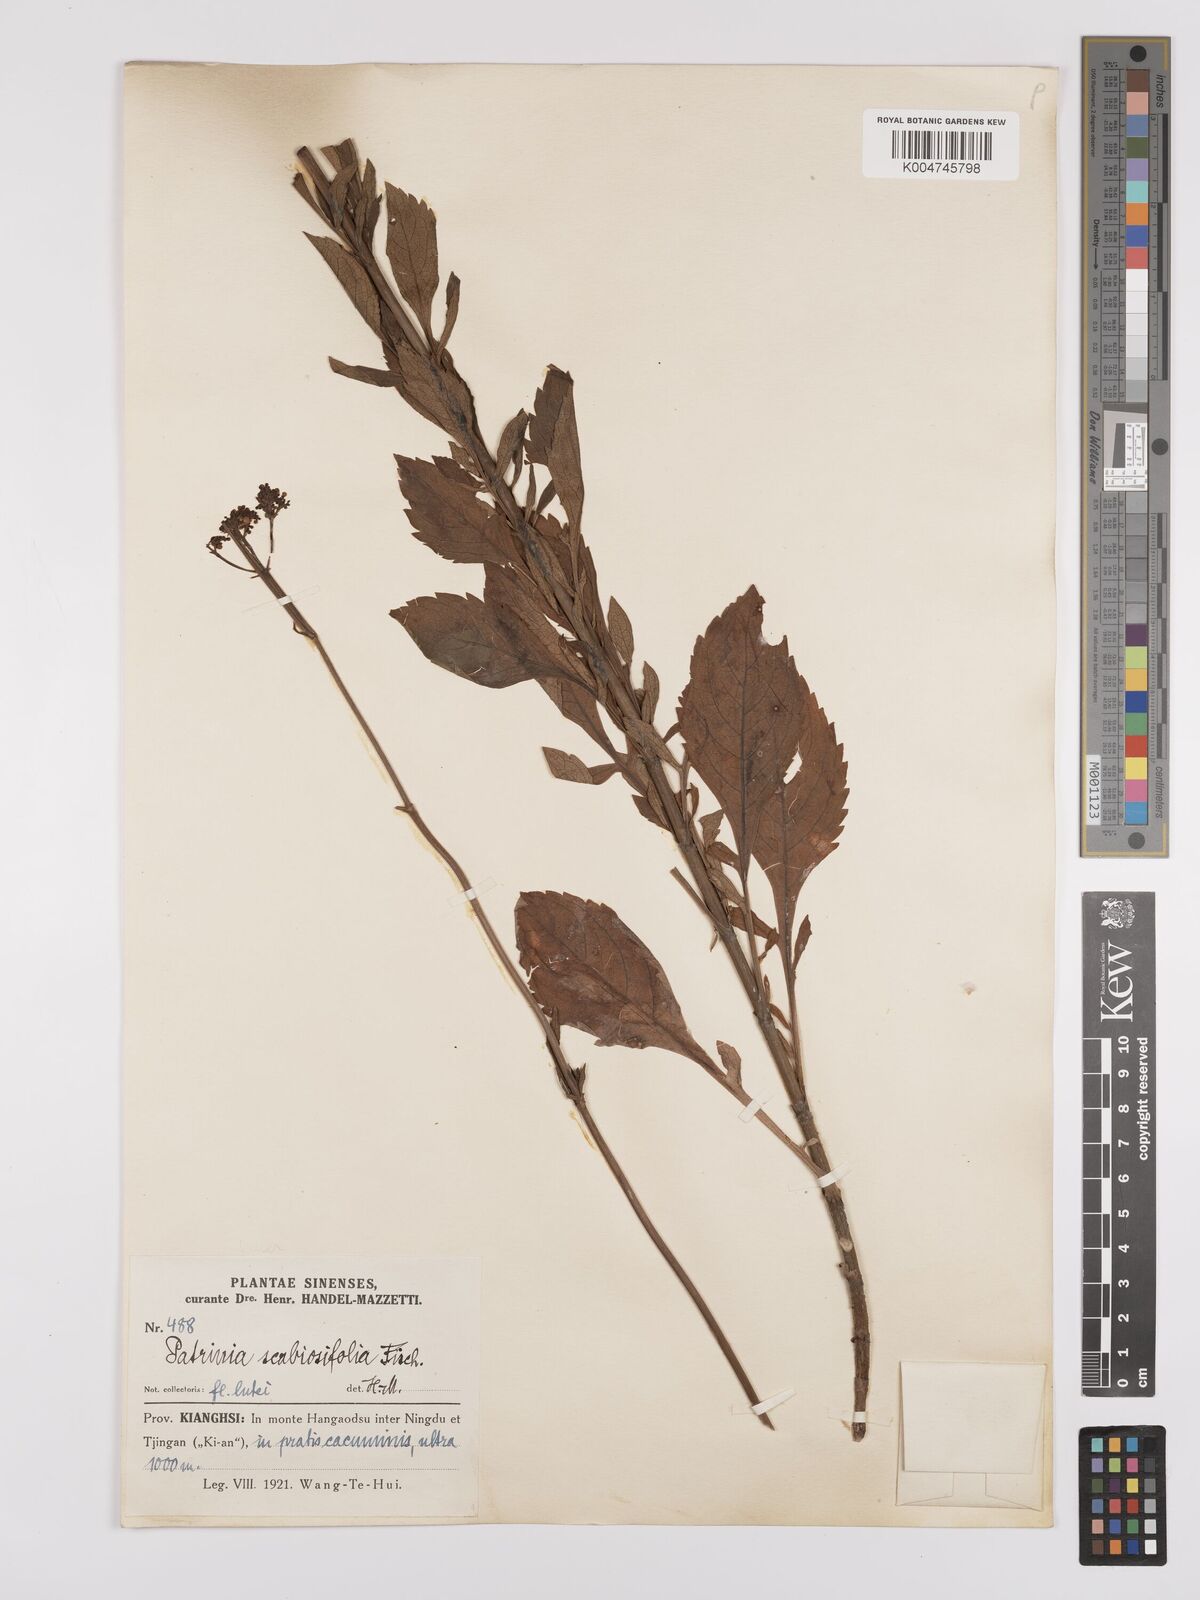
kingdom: Plantae
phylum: Tracheophyta
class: Magnoliopsida
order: Dipsacales
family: Caprifoliaceae
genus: Patrinia
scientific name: Patrinia scabiosifolia
